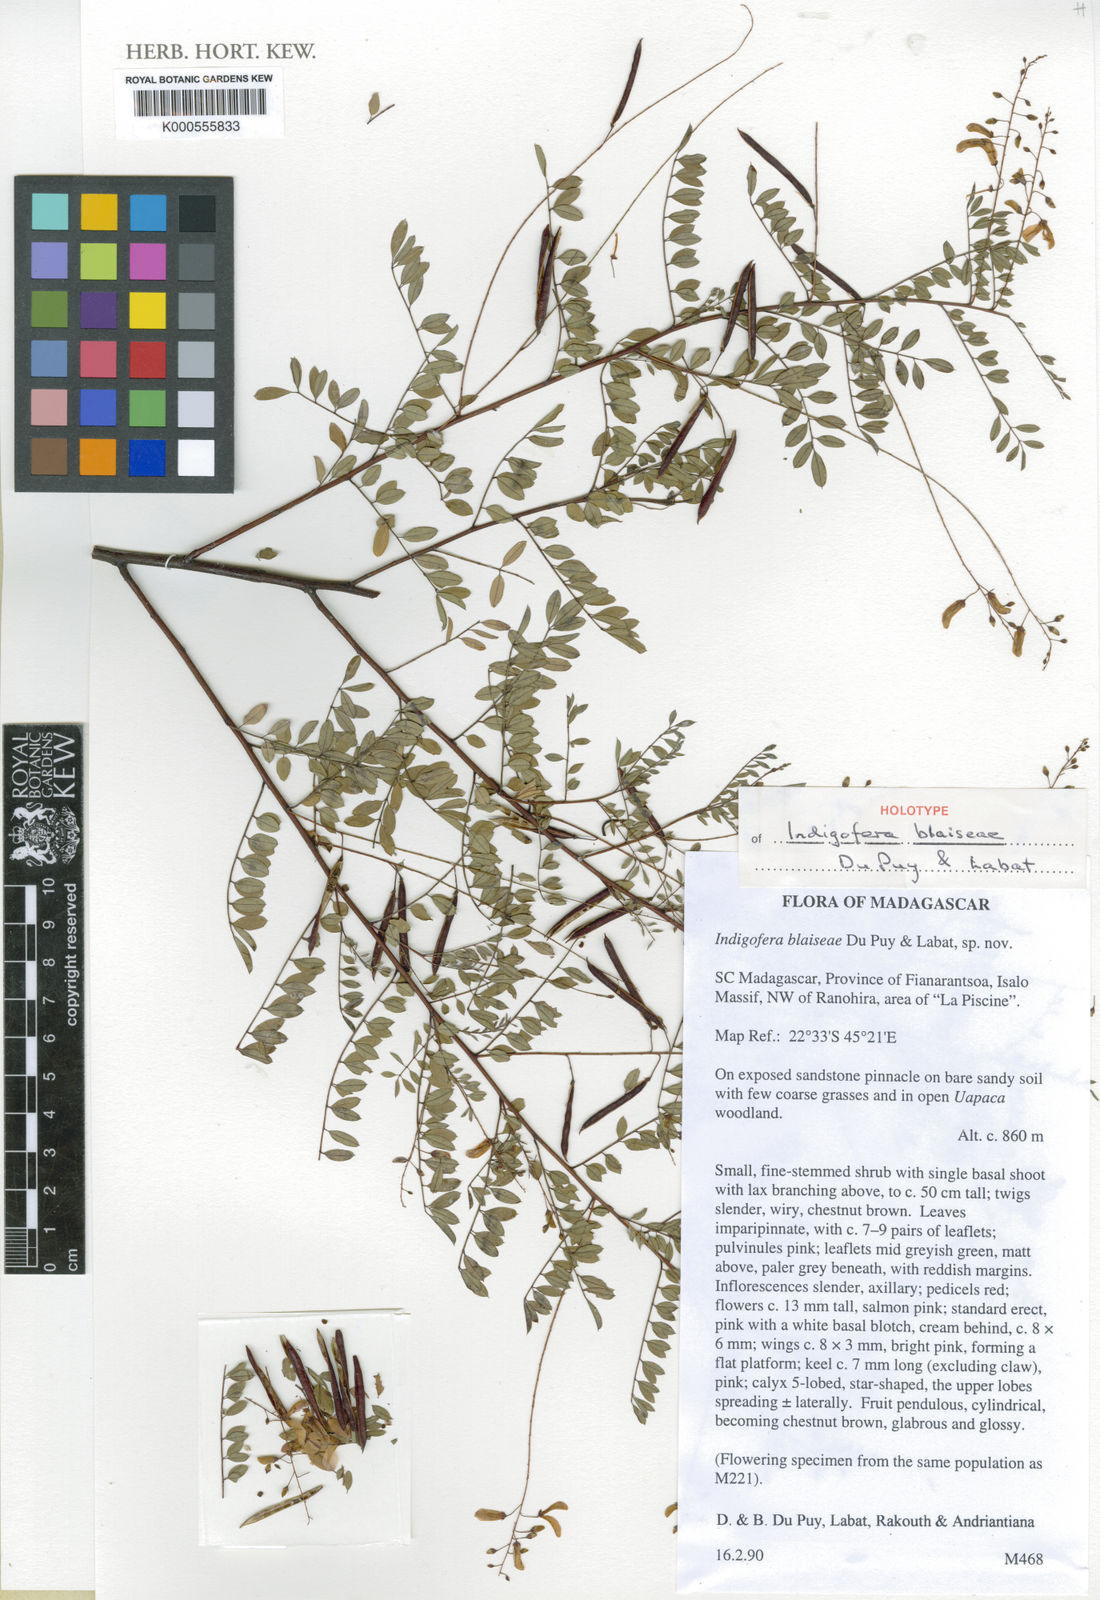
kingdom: Plantae
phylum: Tracheophyta
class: Magnoliopsida
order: Fabales
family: Fabaceae
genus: Indigofera
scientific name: Indigofera blaiseae
